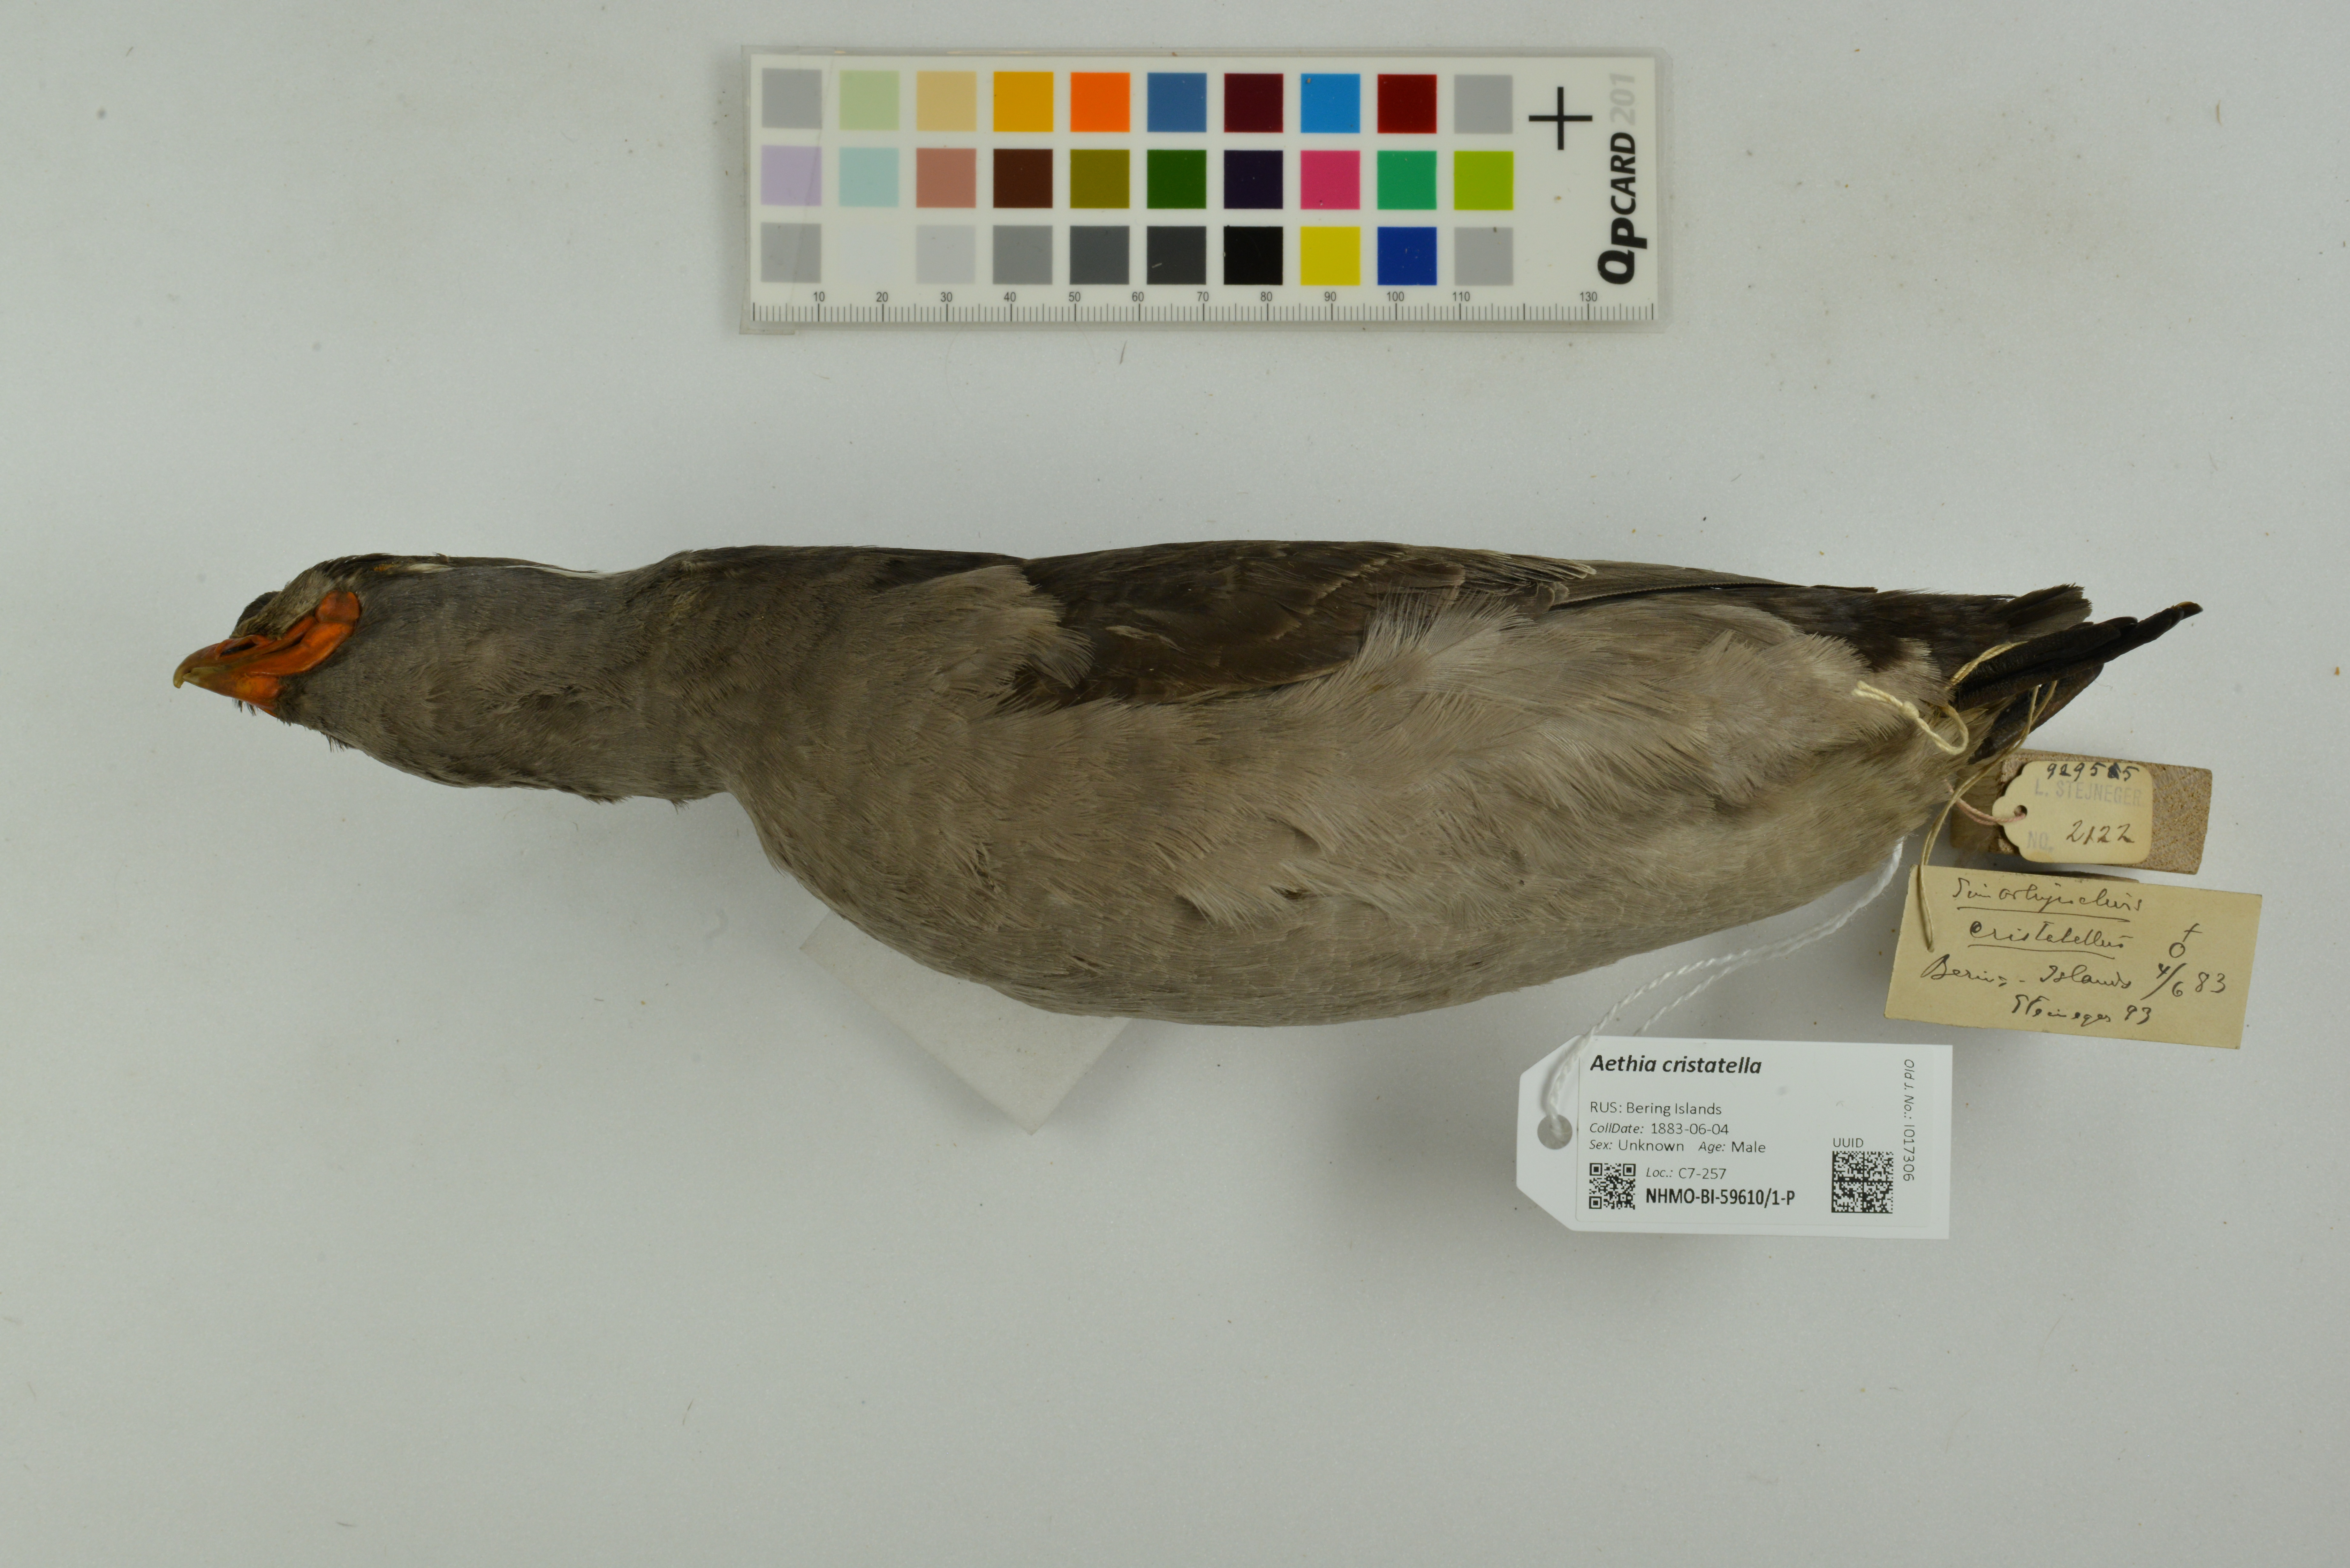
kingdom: Animalia
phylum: Chordata
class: Aves
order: Charadriiformes
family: Alcidae
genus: Aethia
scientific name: Aethia cristatella
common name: Crested auklet
